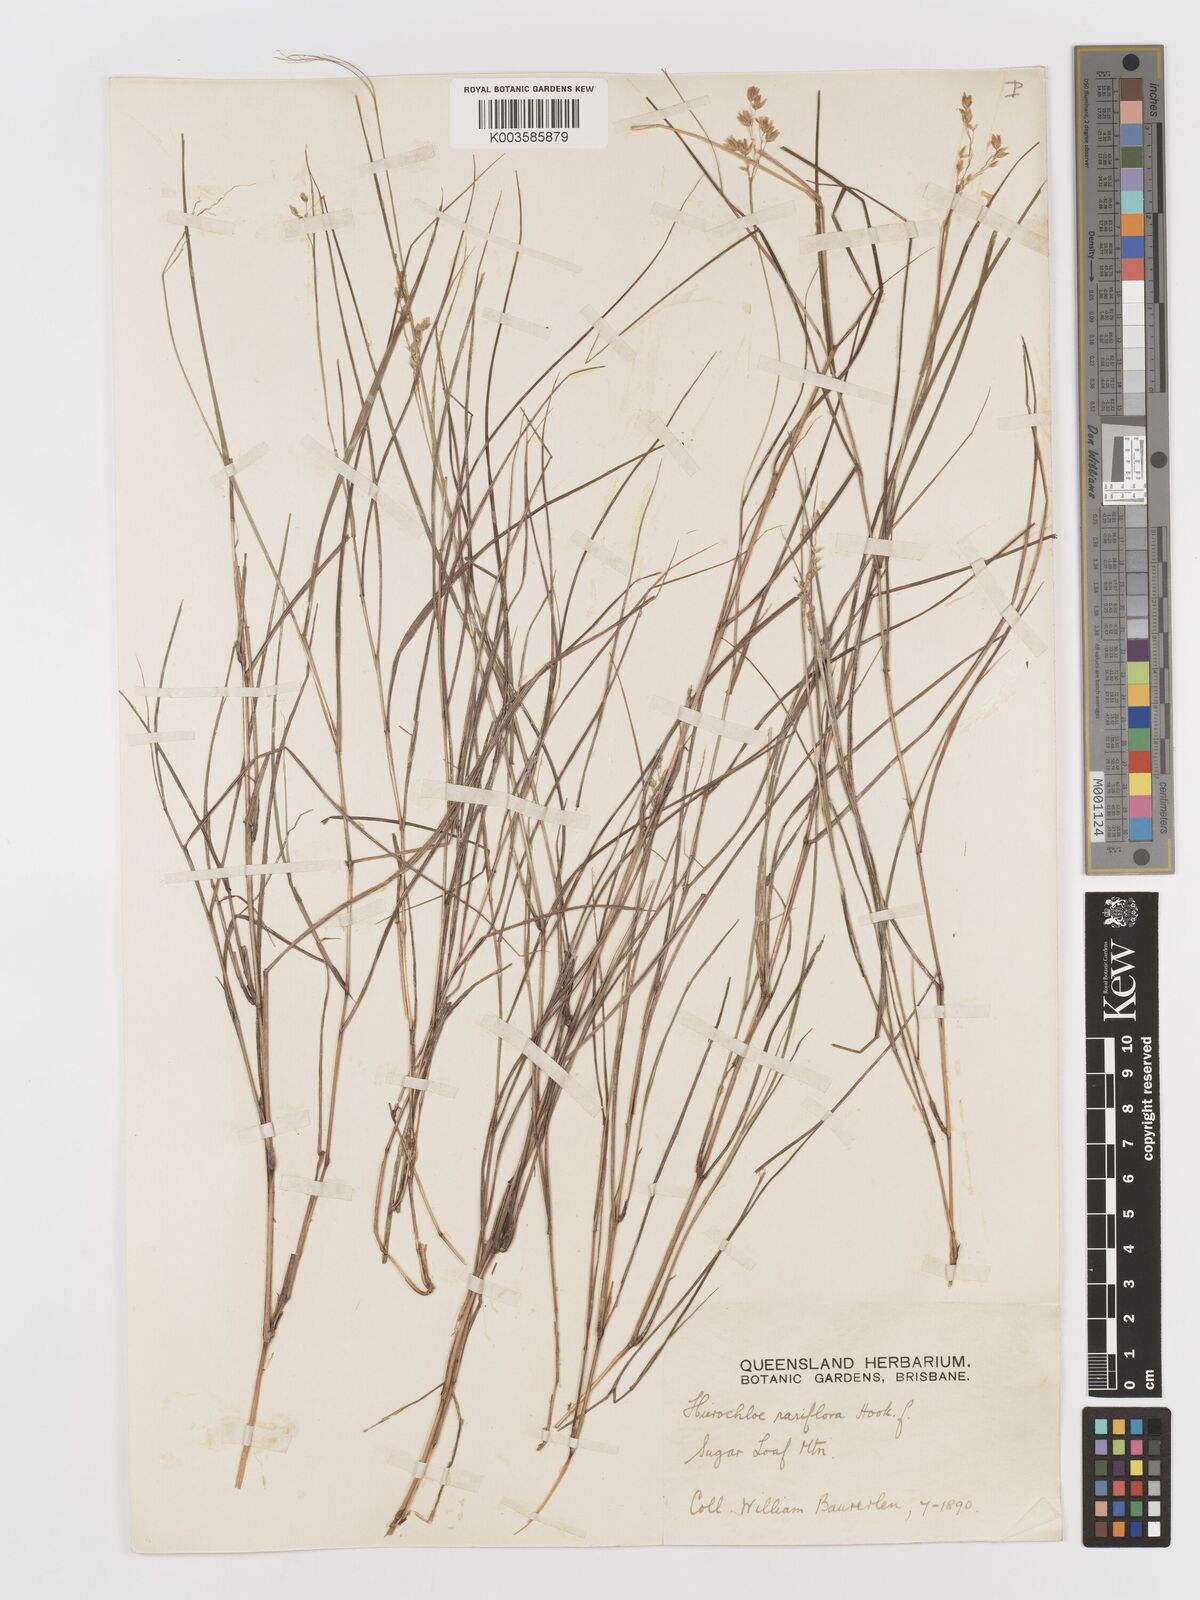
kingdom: Plantae
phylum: Tracheophyta
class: Liliopsida
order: Poales
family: Poaceae
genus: Anthoxanthum
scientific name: Anthoxanthum rariflorum
